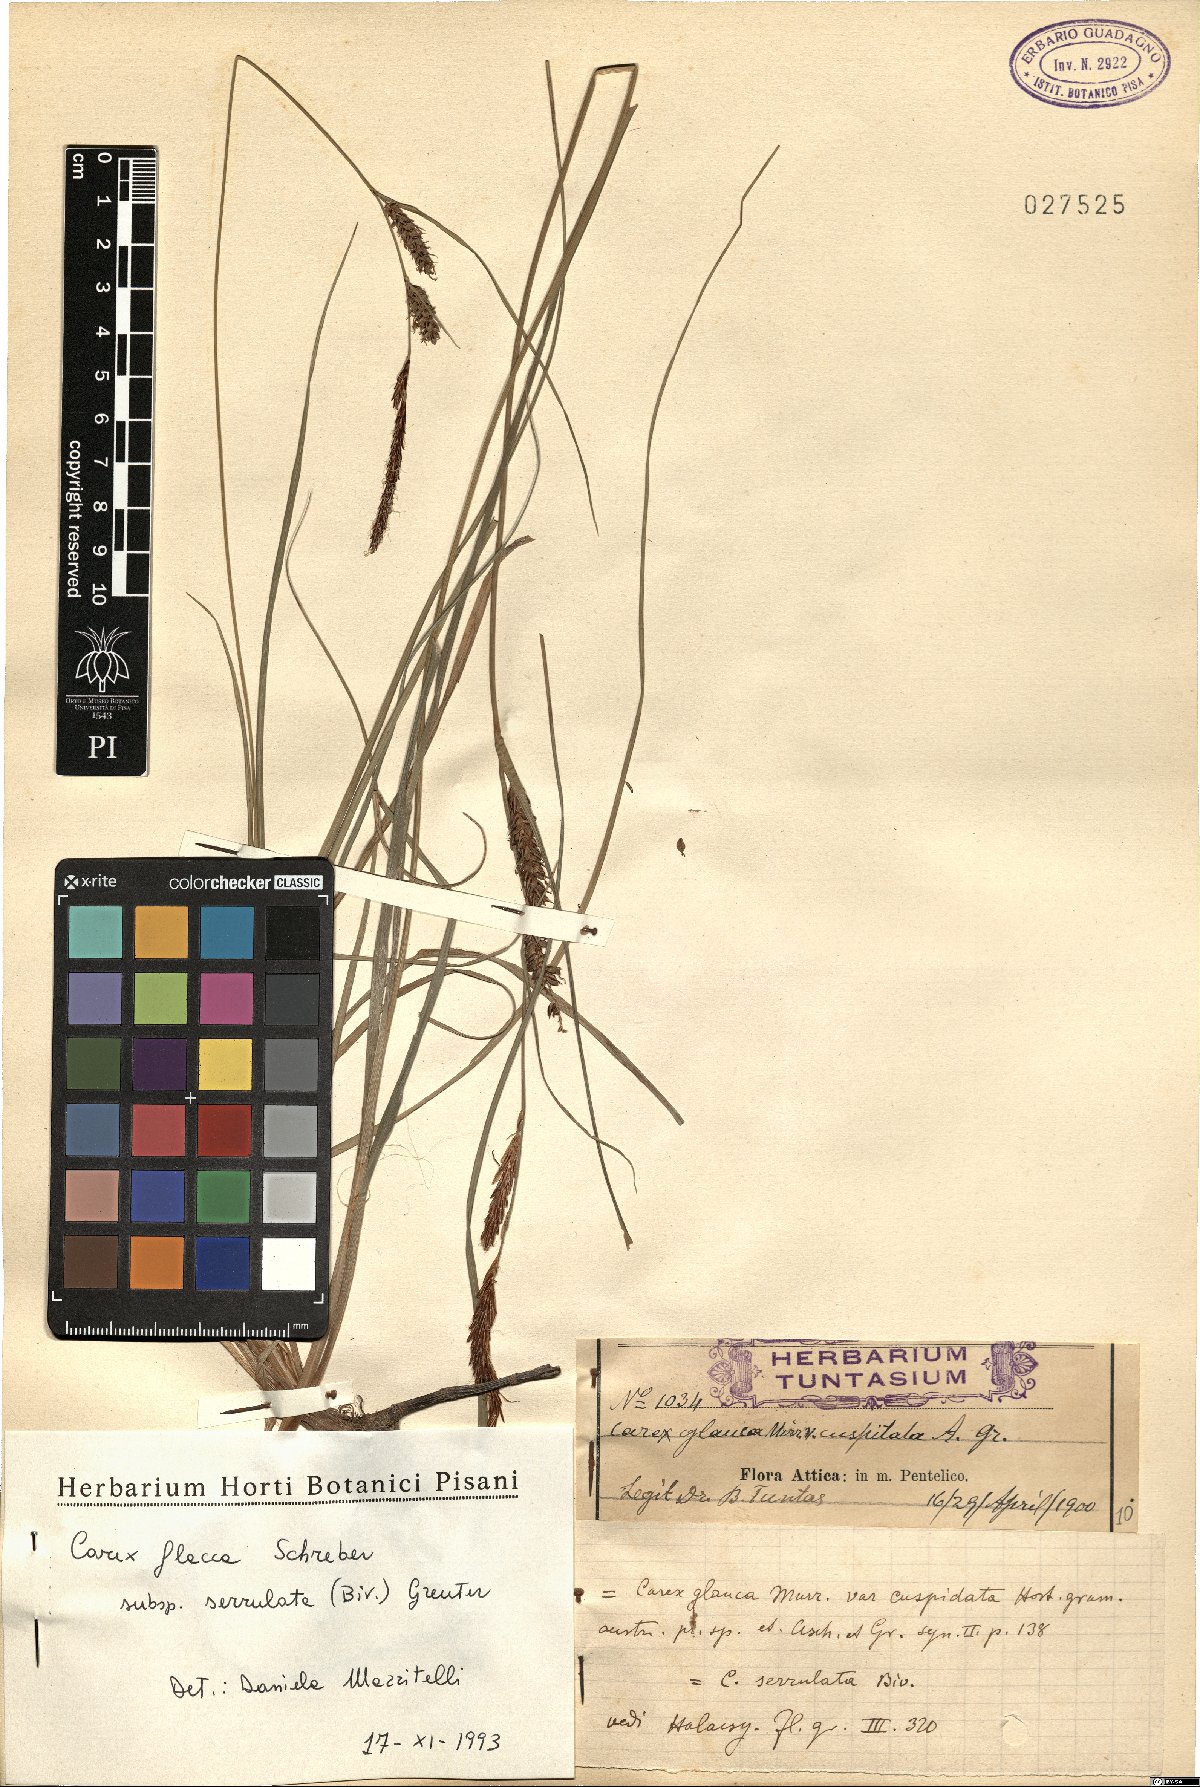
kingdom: Plantae
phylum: Tracheophyta
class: Liliopsida
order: Poales
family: Cyperaceae
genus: Carex
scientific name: Carex flacca
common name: Glaucous sedge
